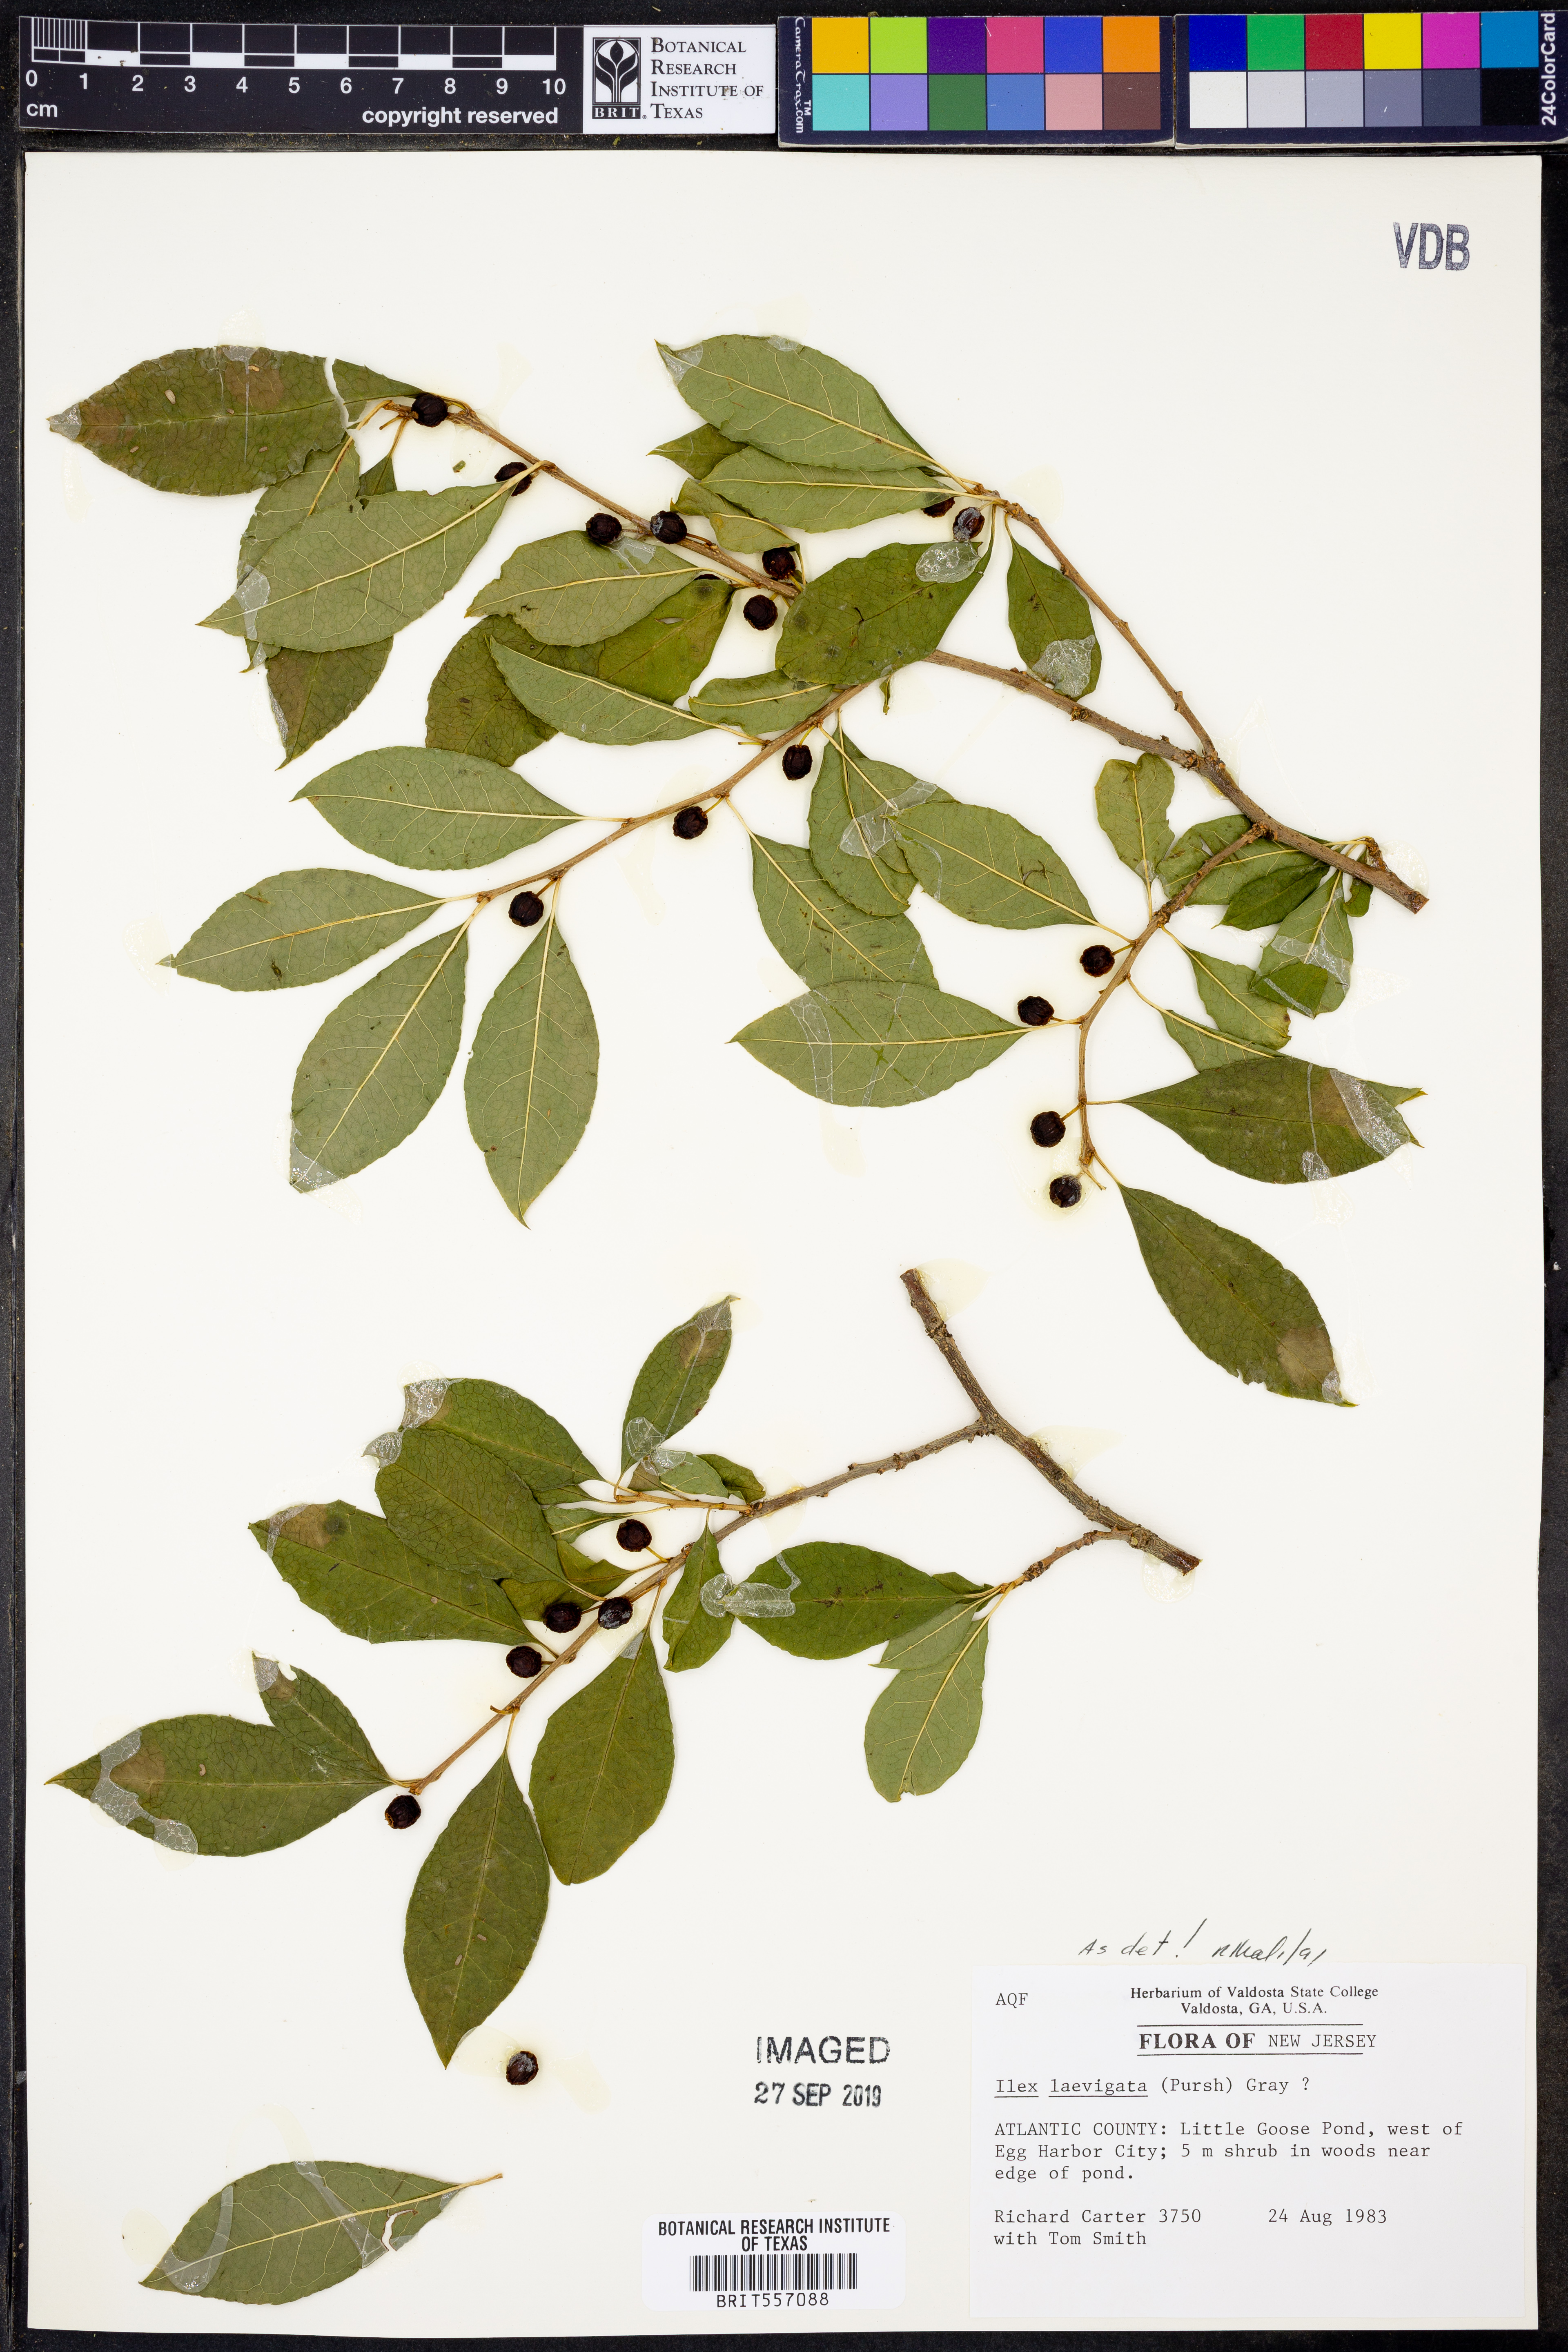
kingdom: Plantae
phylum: Tracheophyta
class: Magnoliopsida
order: Aquifoliales
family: Aquifoliaceae
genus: Ilex
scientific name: Ilex laevigata
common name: Smooth winterberry
